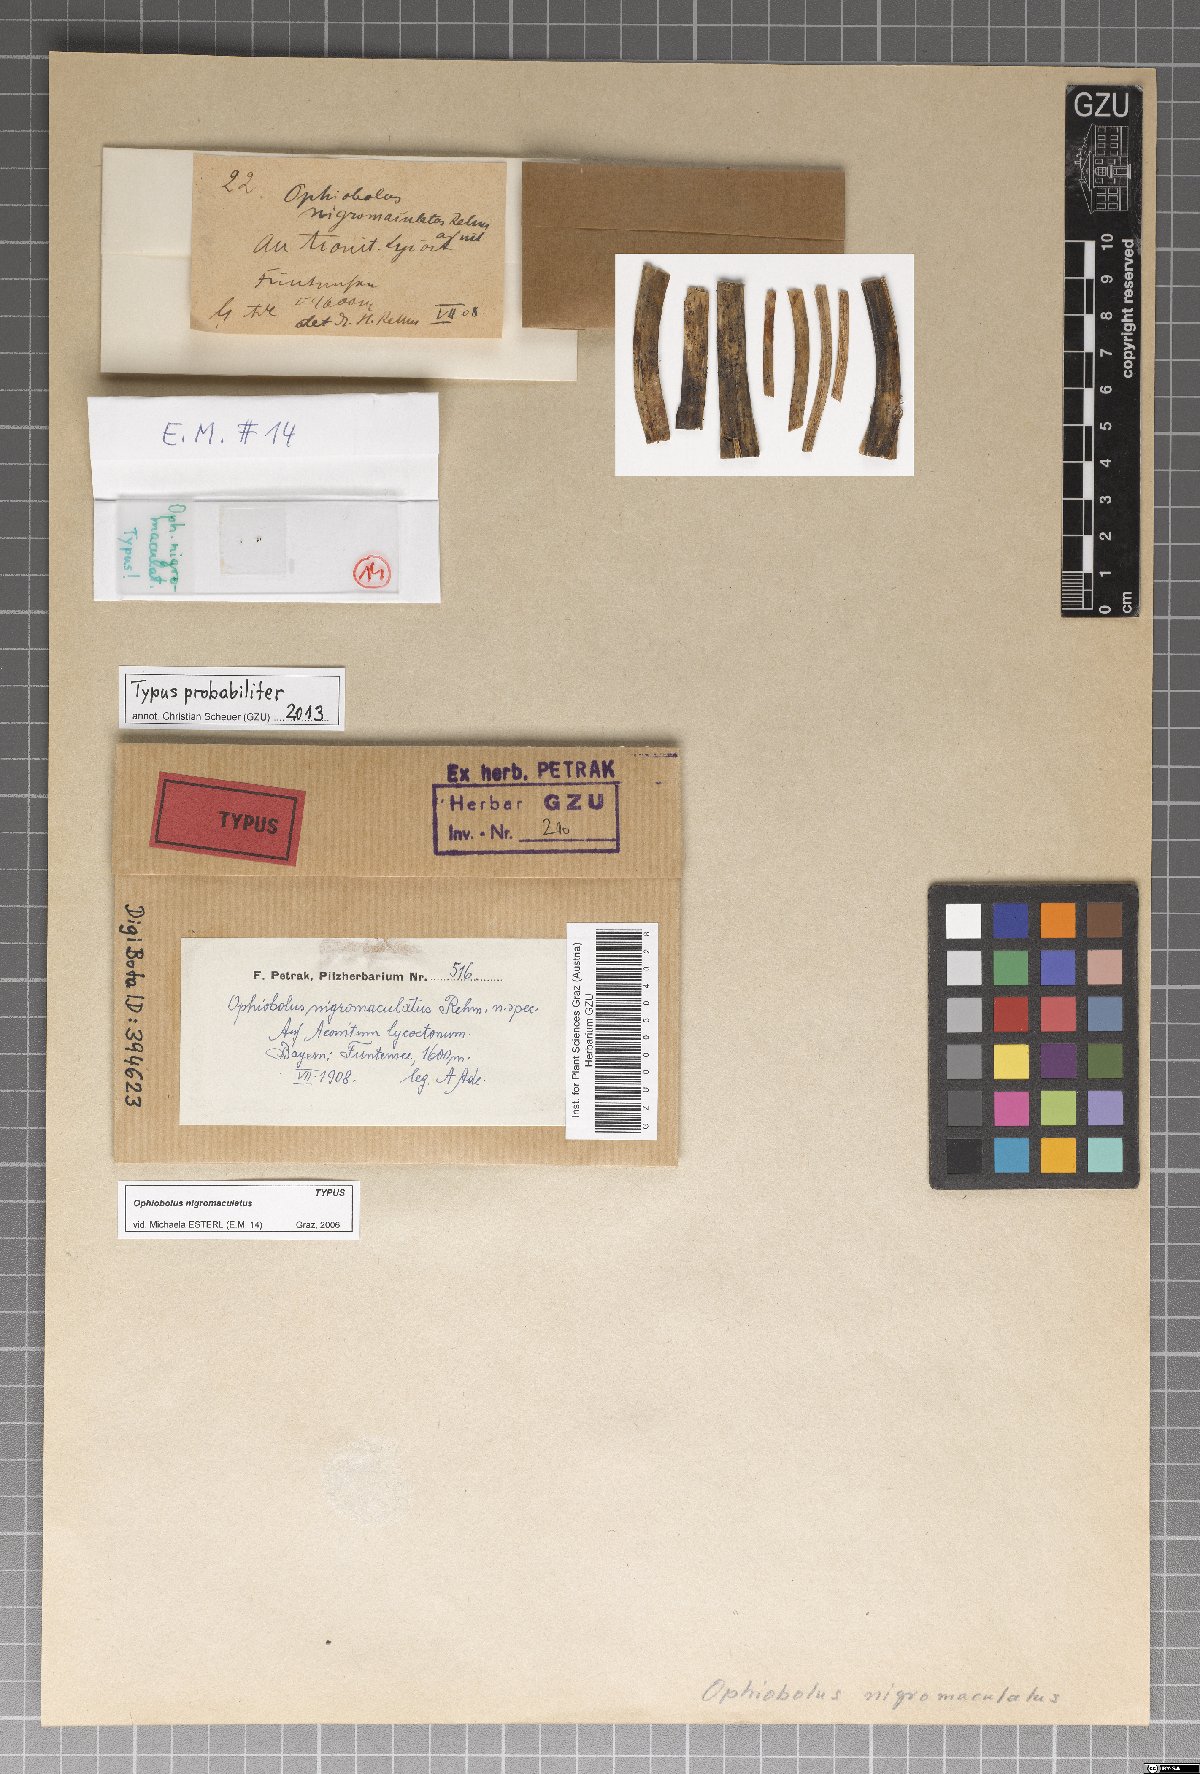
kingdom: Fungi
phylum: Ascomycota
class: Dothideomycetes
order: Pleosporales
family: Leptosphaeriaceae
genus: Leptosphaeria
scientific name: Leptosphaeria nigromaculata
